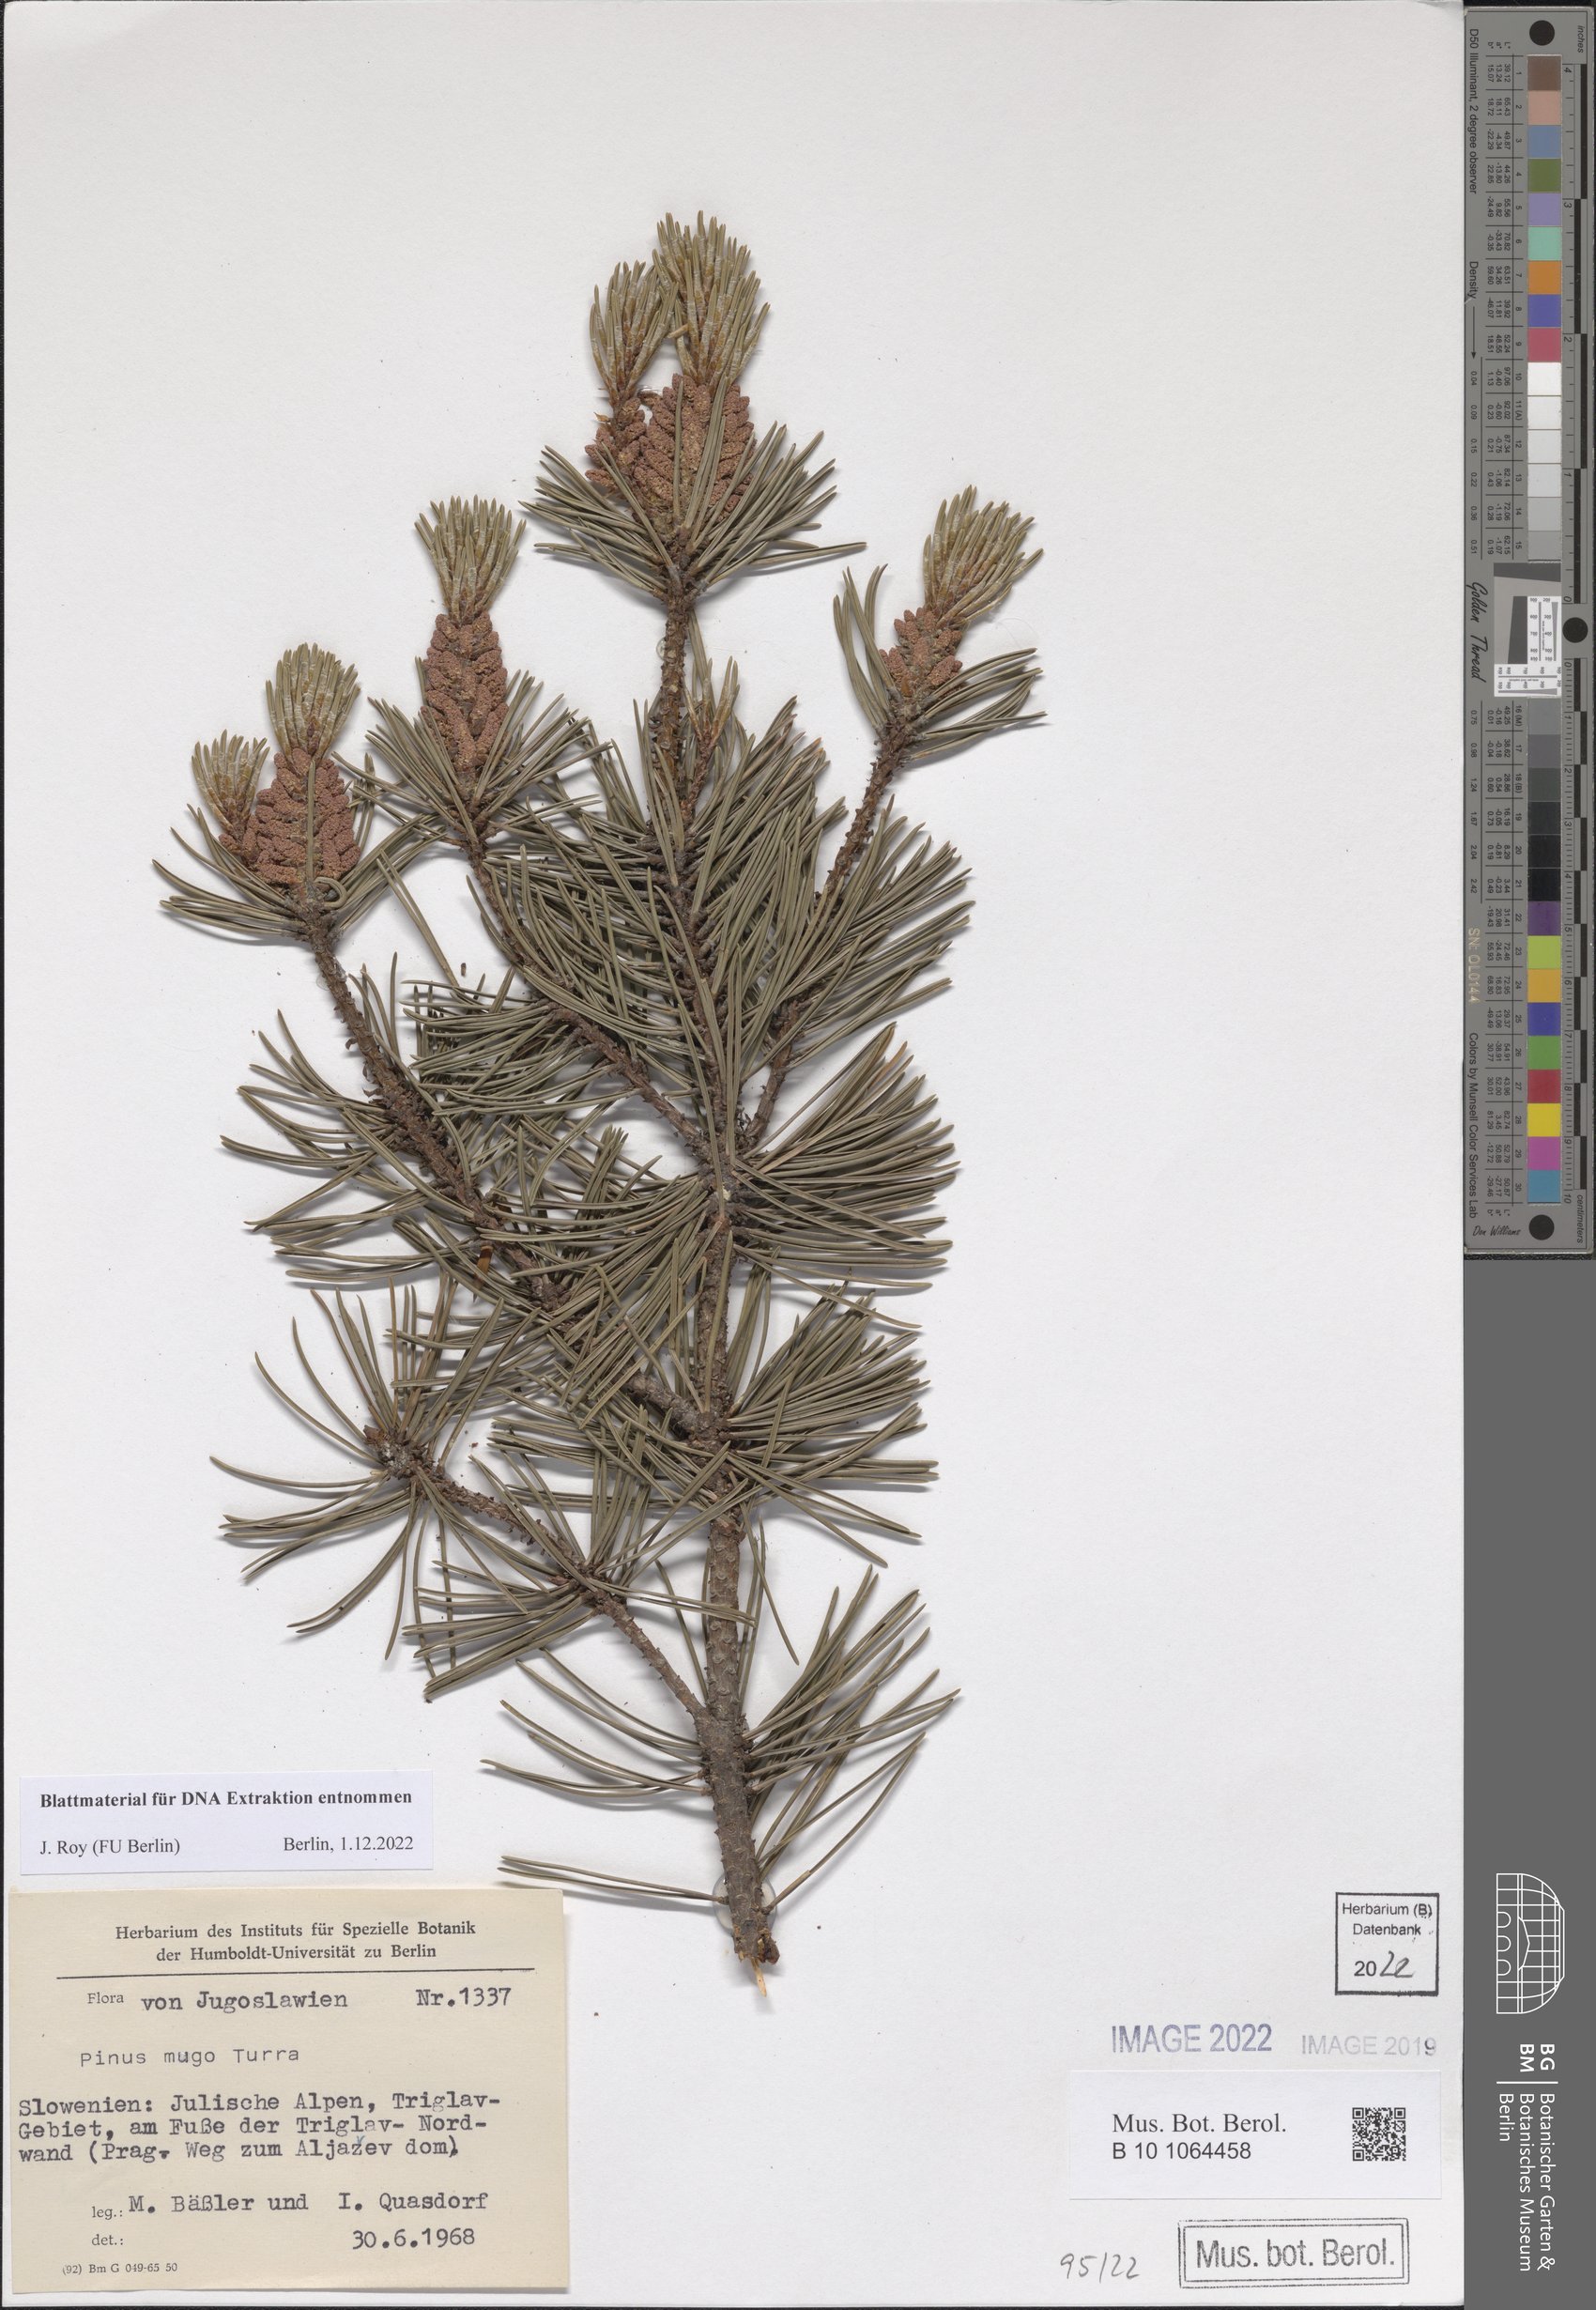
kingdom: Plantae
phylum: Tracheophyta
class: Pinopsida
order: Pinales
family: Pinaceae
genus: Pinus
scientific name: Pinus mugo
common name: Mugo pine
